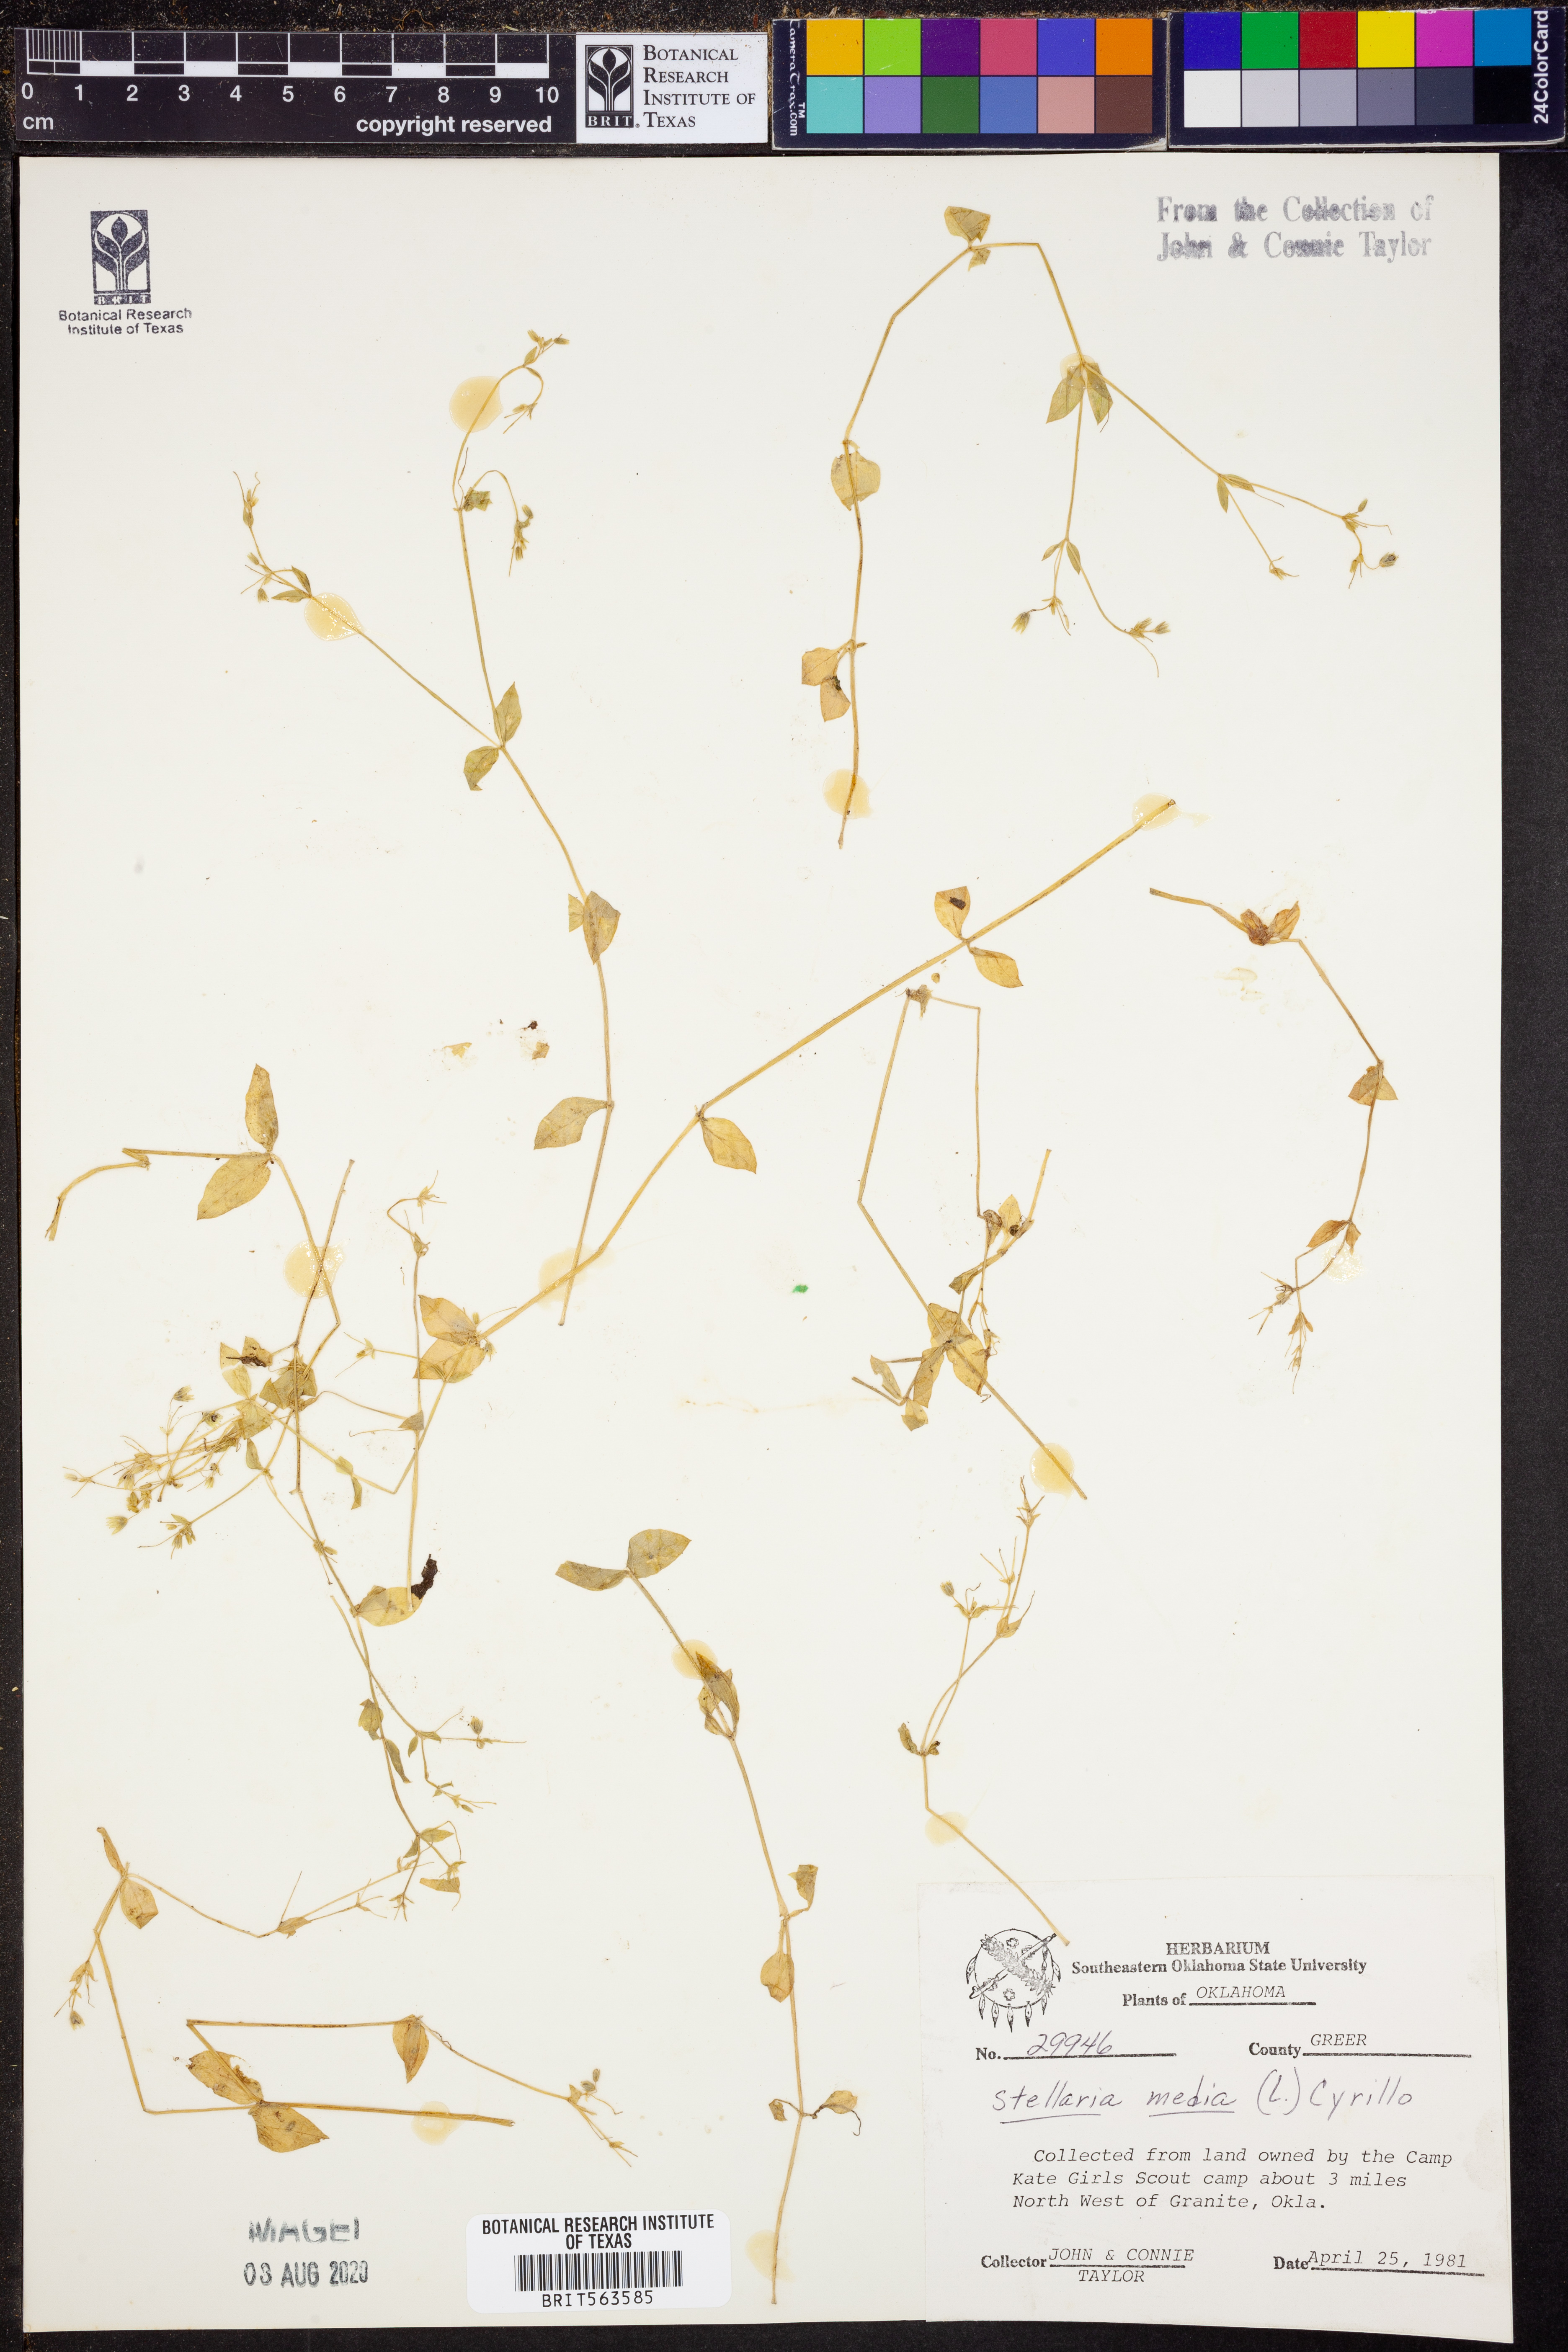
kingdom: Plantae
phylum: Tracheophyta
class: Magnoliopsida
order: Caryophyllales
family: Caryophyllaceae
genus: Stellaria
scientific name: Stellaria media
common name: Common chickweed
